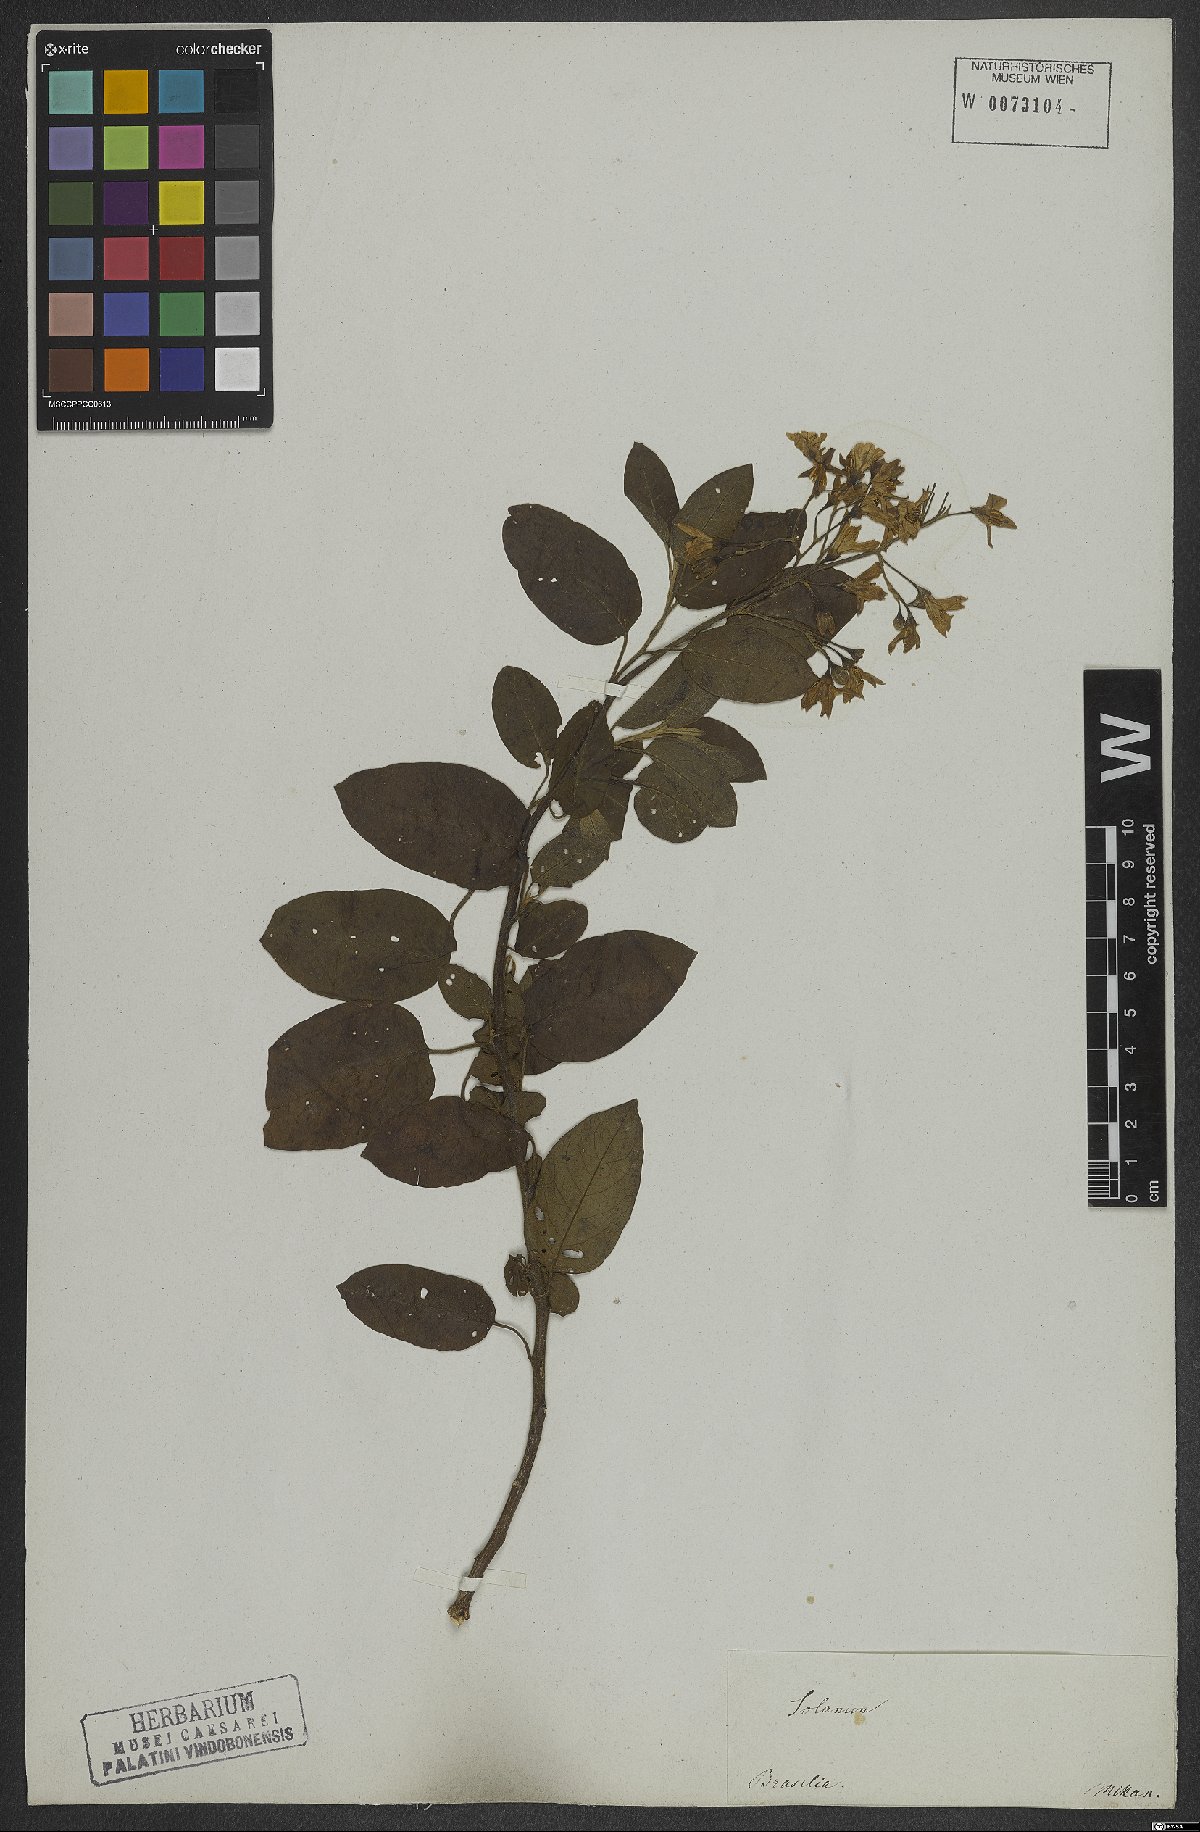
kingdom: Plantae
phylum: Tracheophyta
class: Magnoliopsida
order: Solanales
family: Solanaceae
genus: Solanum
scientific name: Solanum flaccidum
